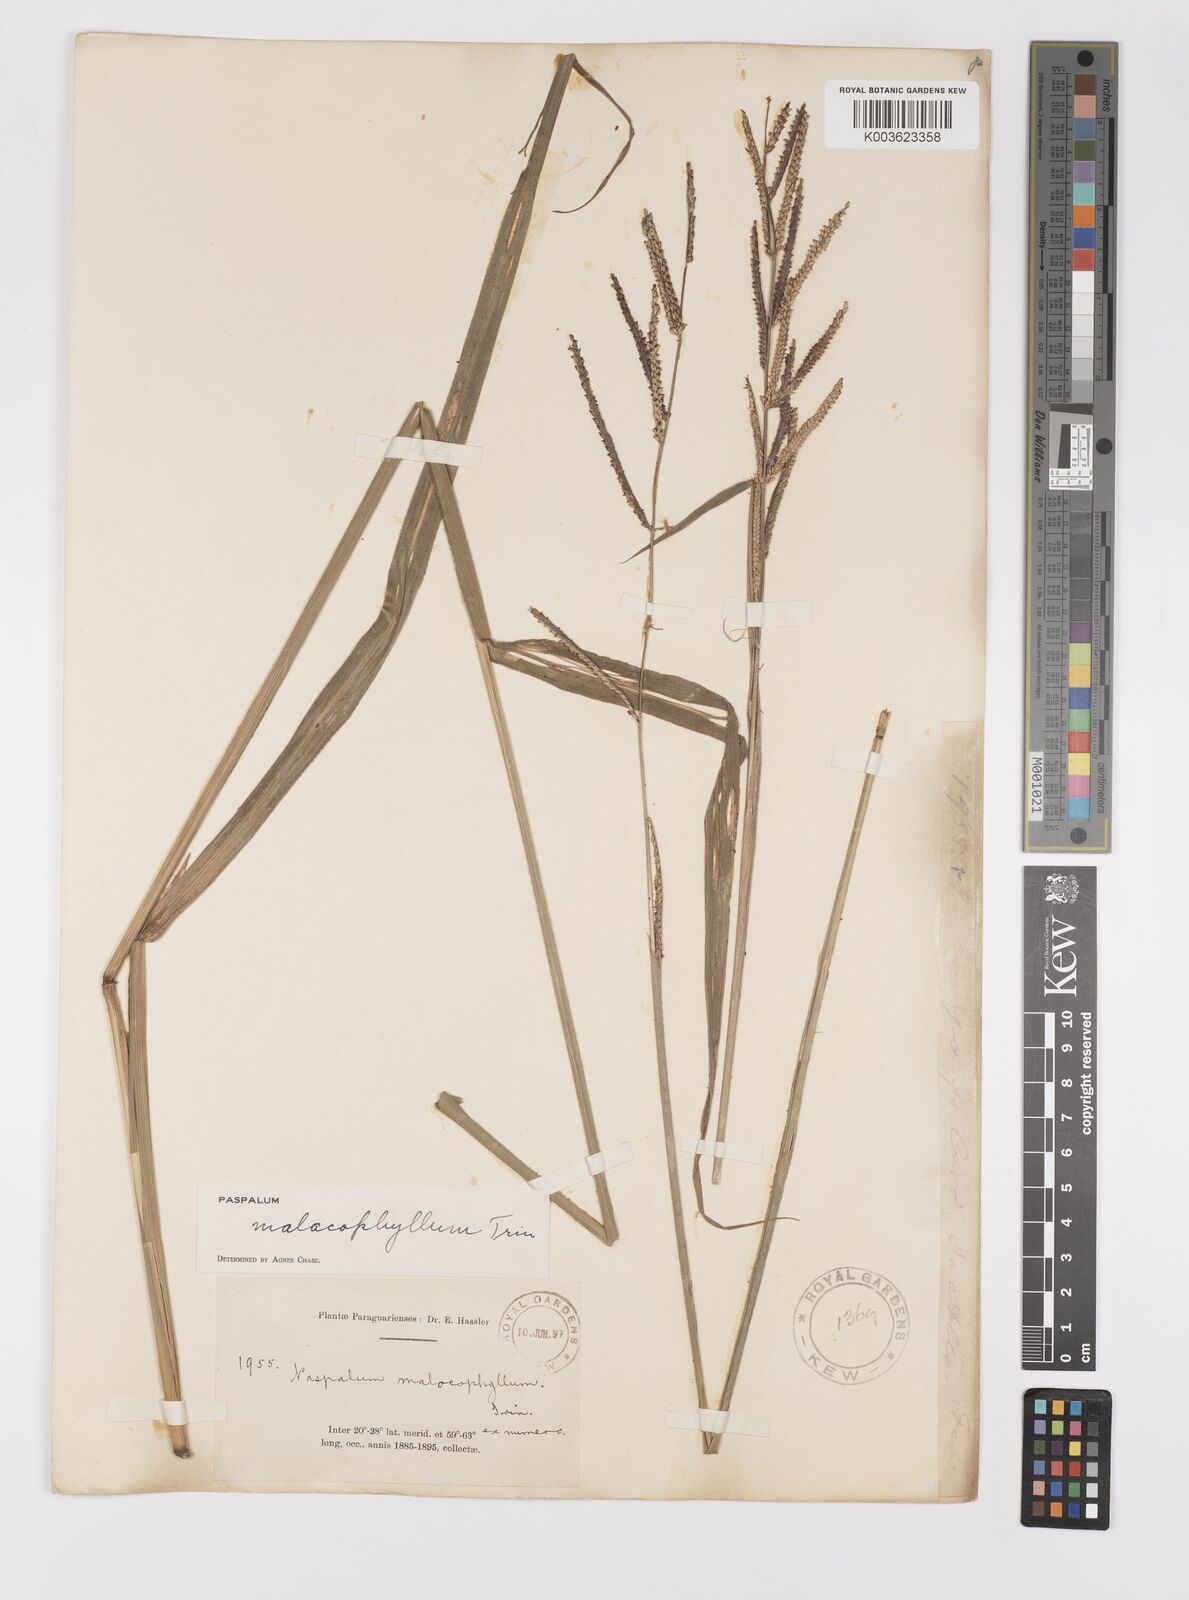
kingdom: Plantae
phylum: Tracheophyta
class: Liliopsida
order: Poales
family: Poaceae
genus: Paspalum
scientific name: Paspalum malacophyllum
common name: Ribbed paspalum
